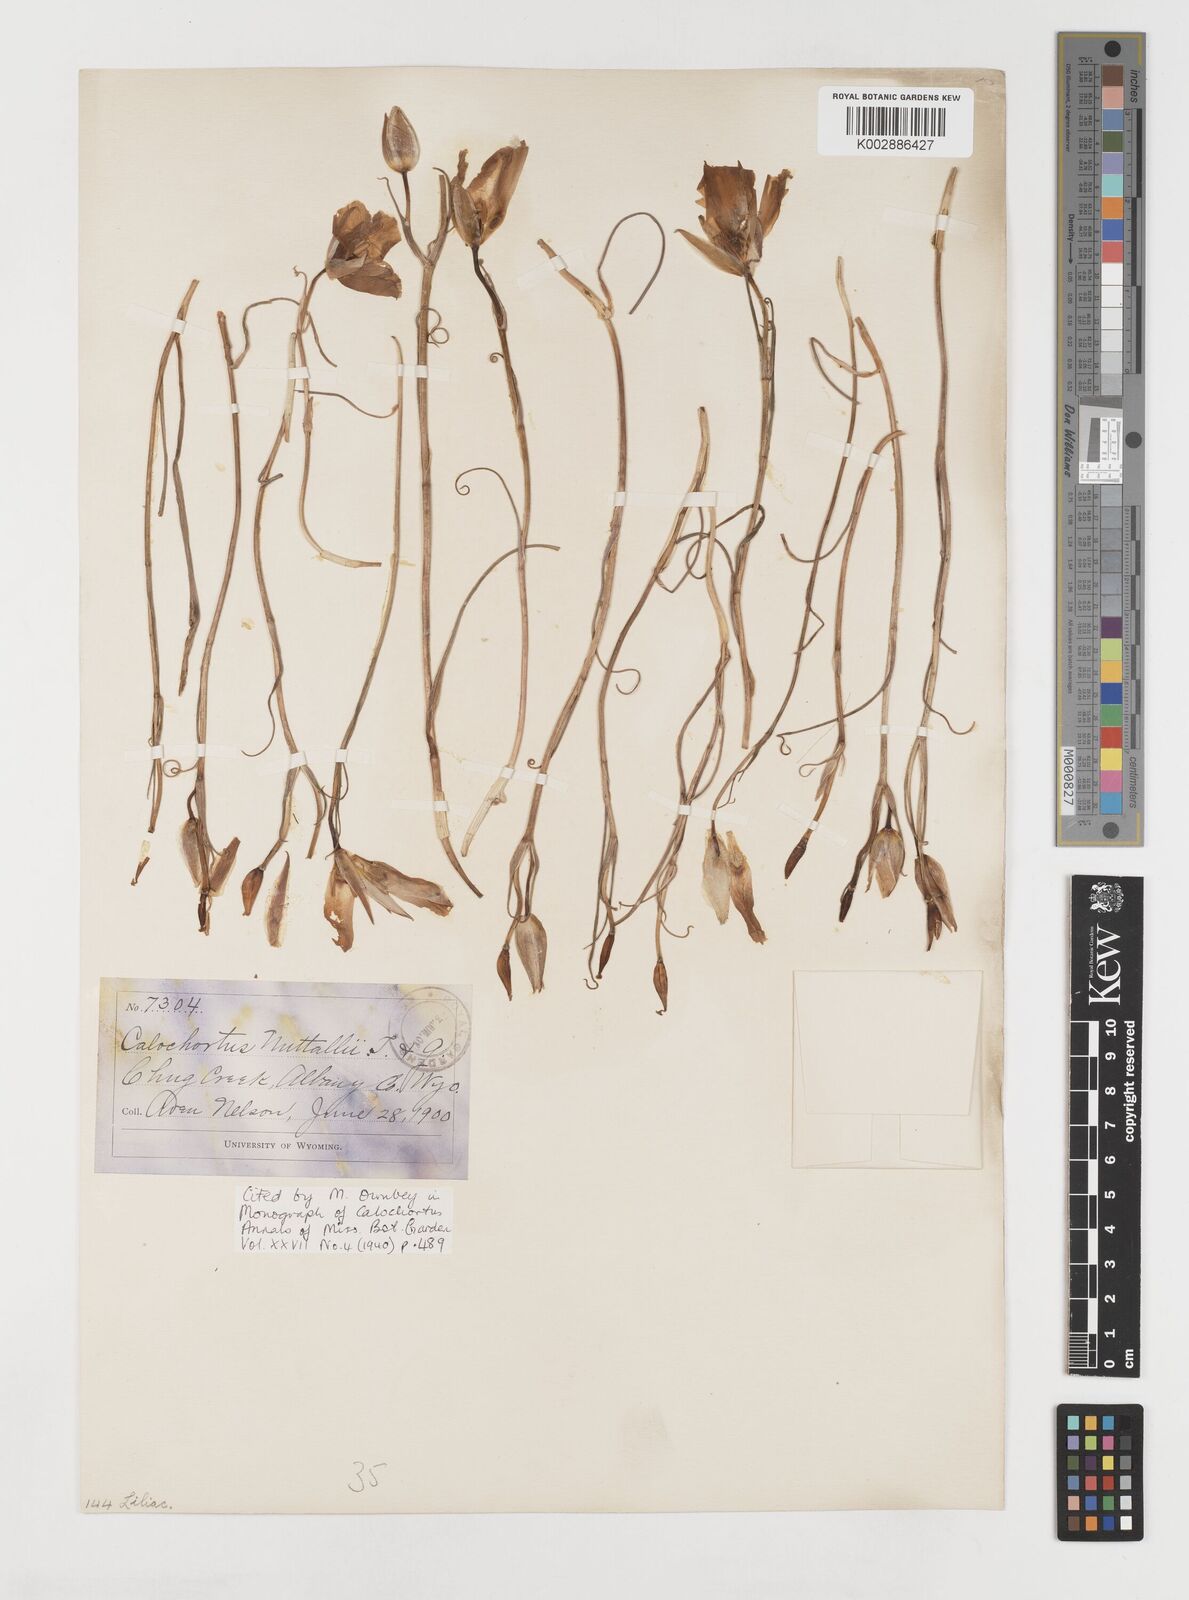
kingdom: Plantae
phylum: Tracheophyta
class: Liliopsida
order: Liliales
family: Liliaceae
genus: Calochortus
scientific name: Calochortus nuttallii
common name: Sego-lily
